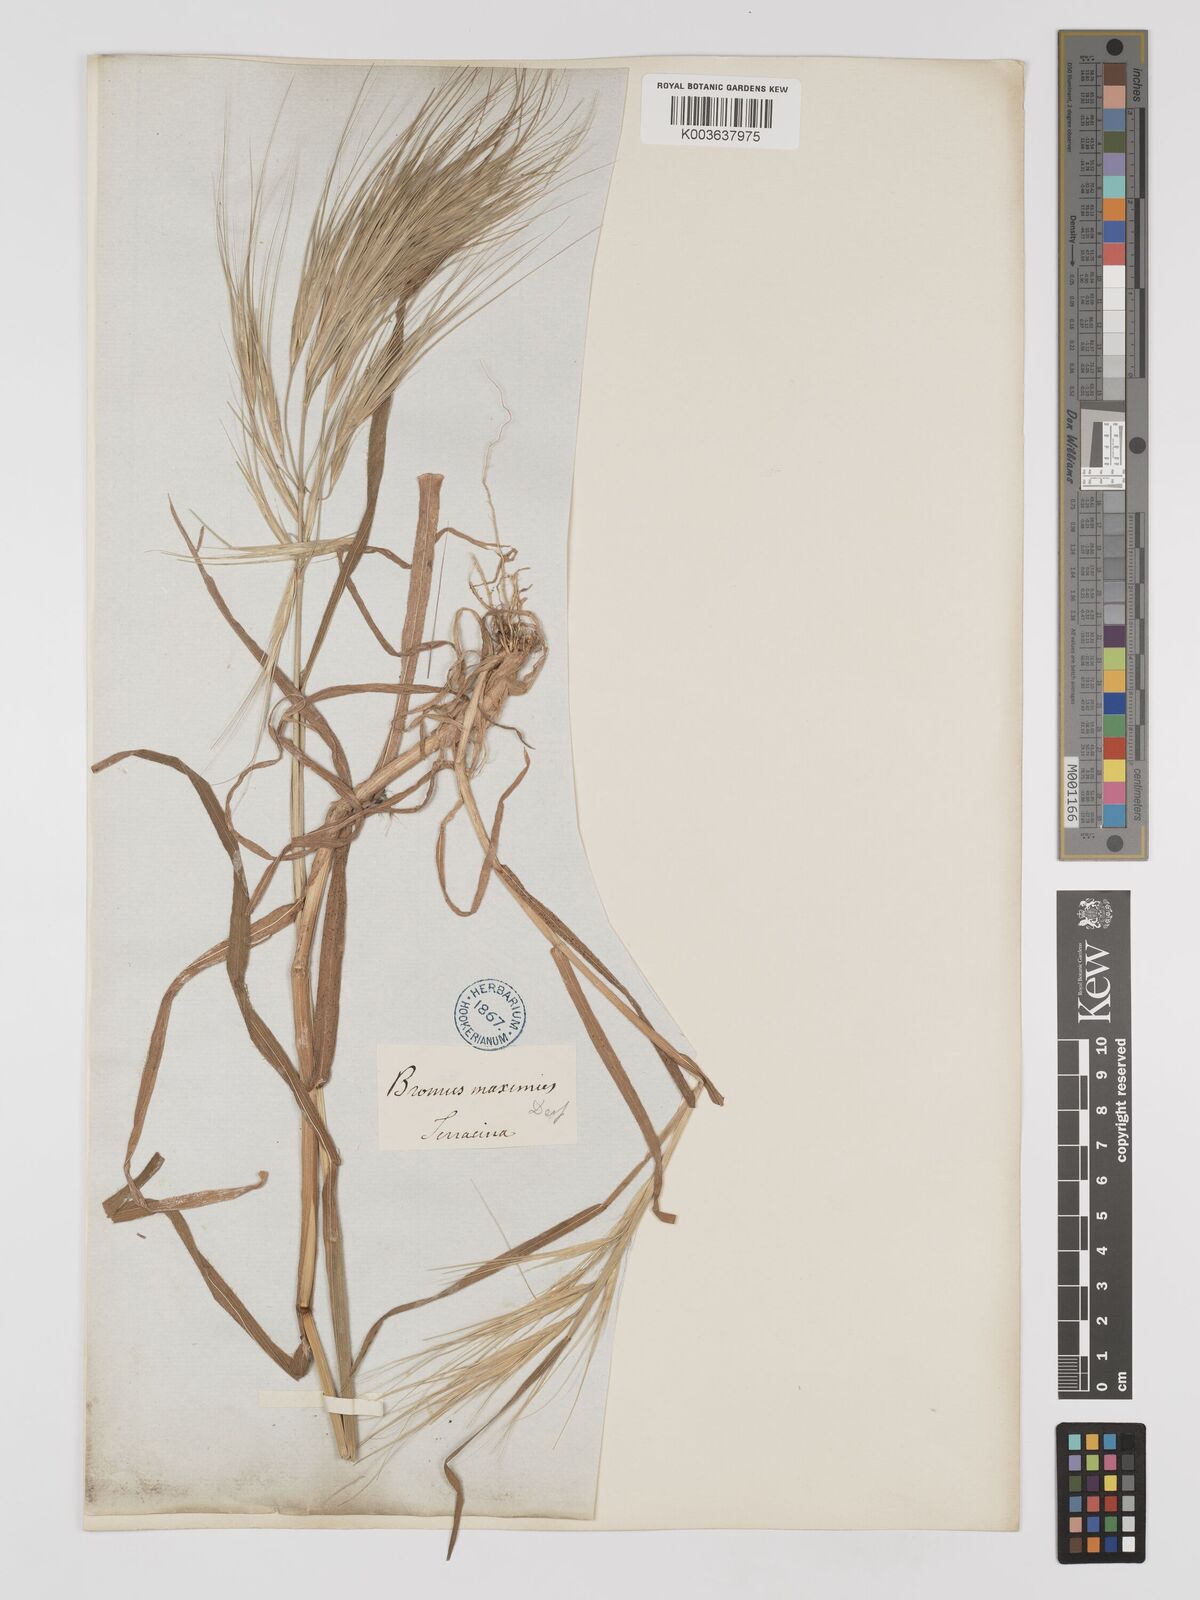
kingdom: Plantae
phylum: Tracheophyta
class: Liliopsida
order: Poales
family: Poaceae
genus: Bromus
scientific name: Bromus
